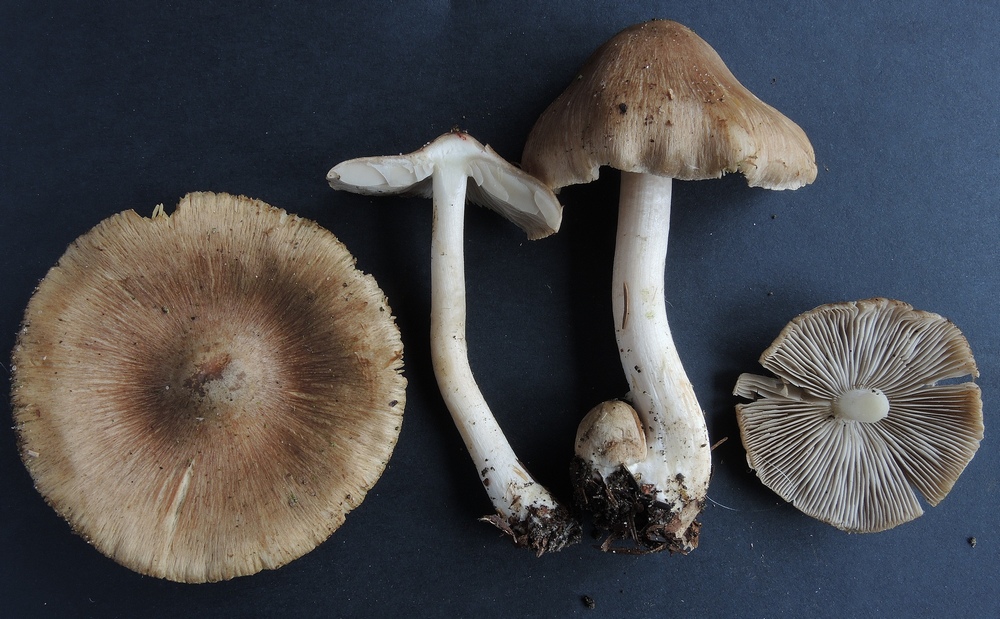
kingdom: Fungi
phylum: Basidiomycota
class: Agaricomycetes
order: Agaricales
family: Inocybaceae
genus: Inocybe
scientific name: Inocybe
